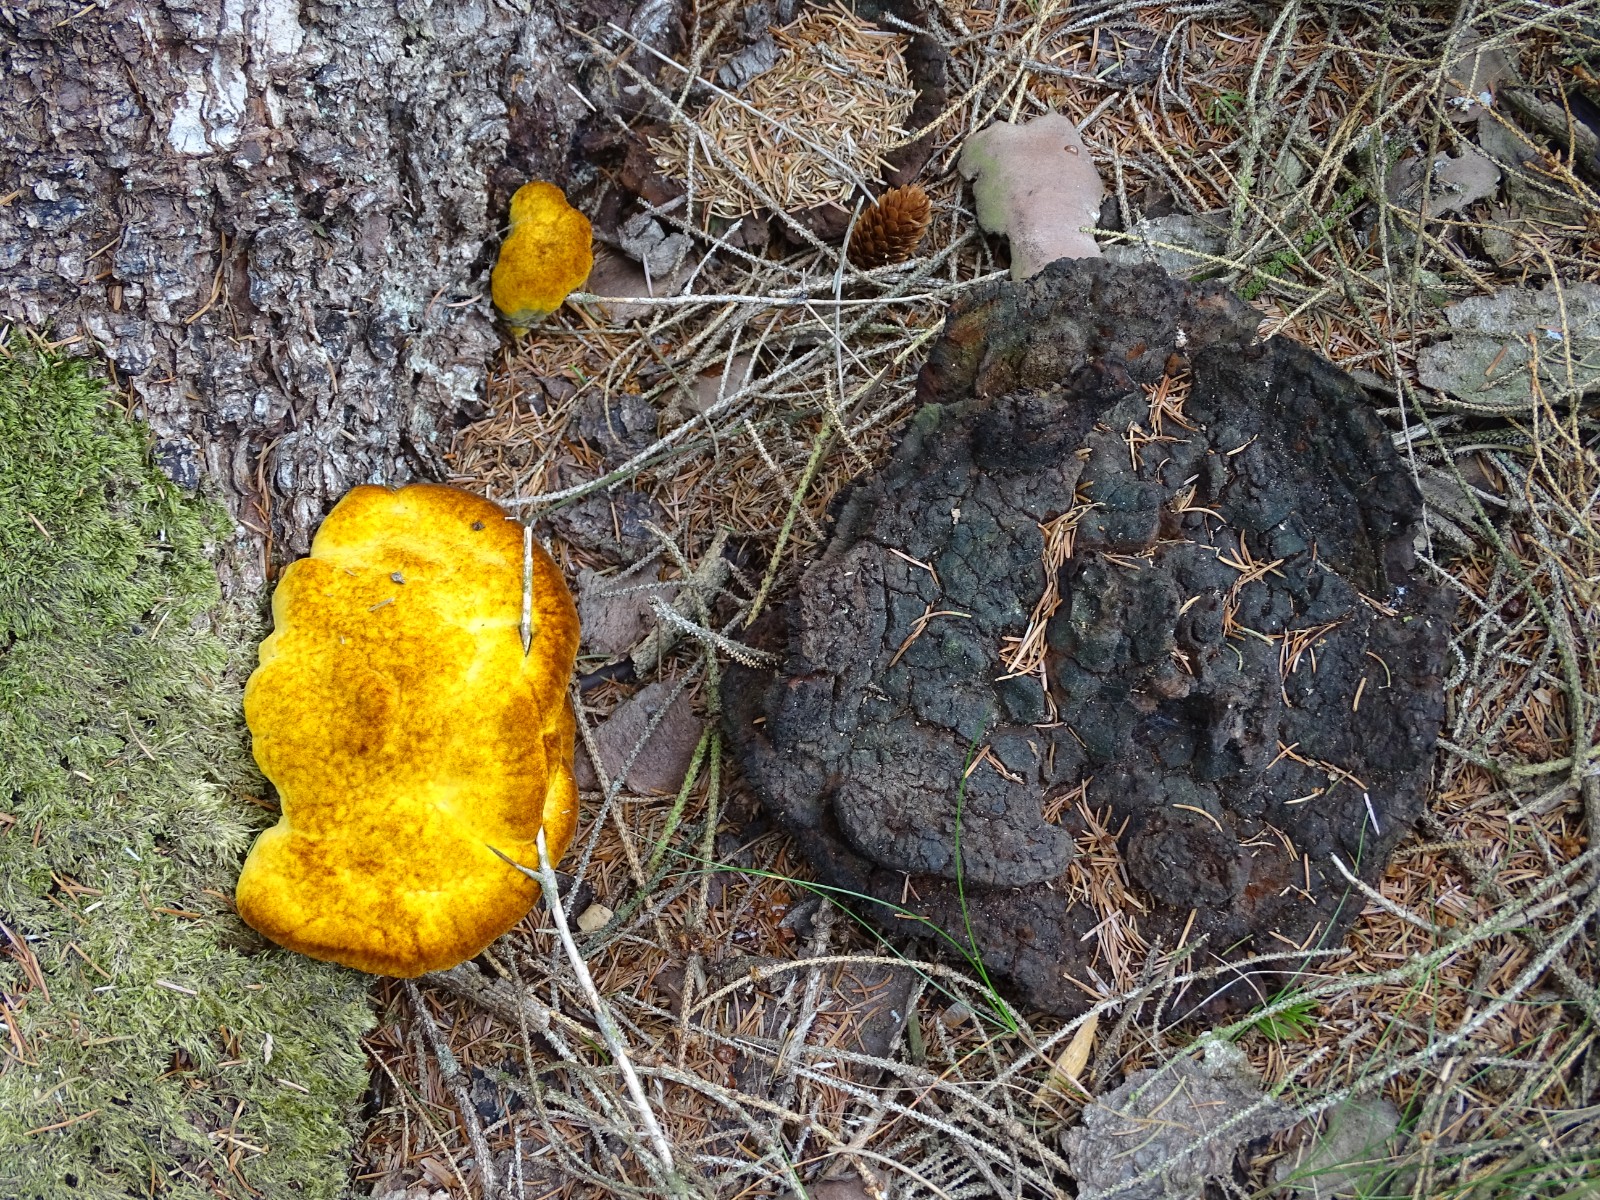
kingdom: Fungi
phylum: Basidiomycota
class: Agaricomycetes
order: Polyporales
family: Laetiporaceae
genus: Phaeolus
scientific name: Phaeolus schweinitzii
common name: brunporesvamp
